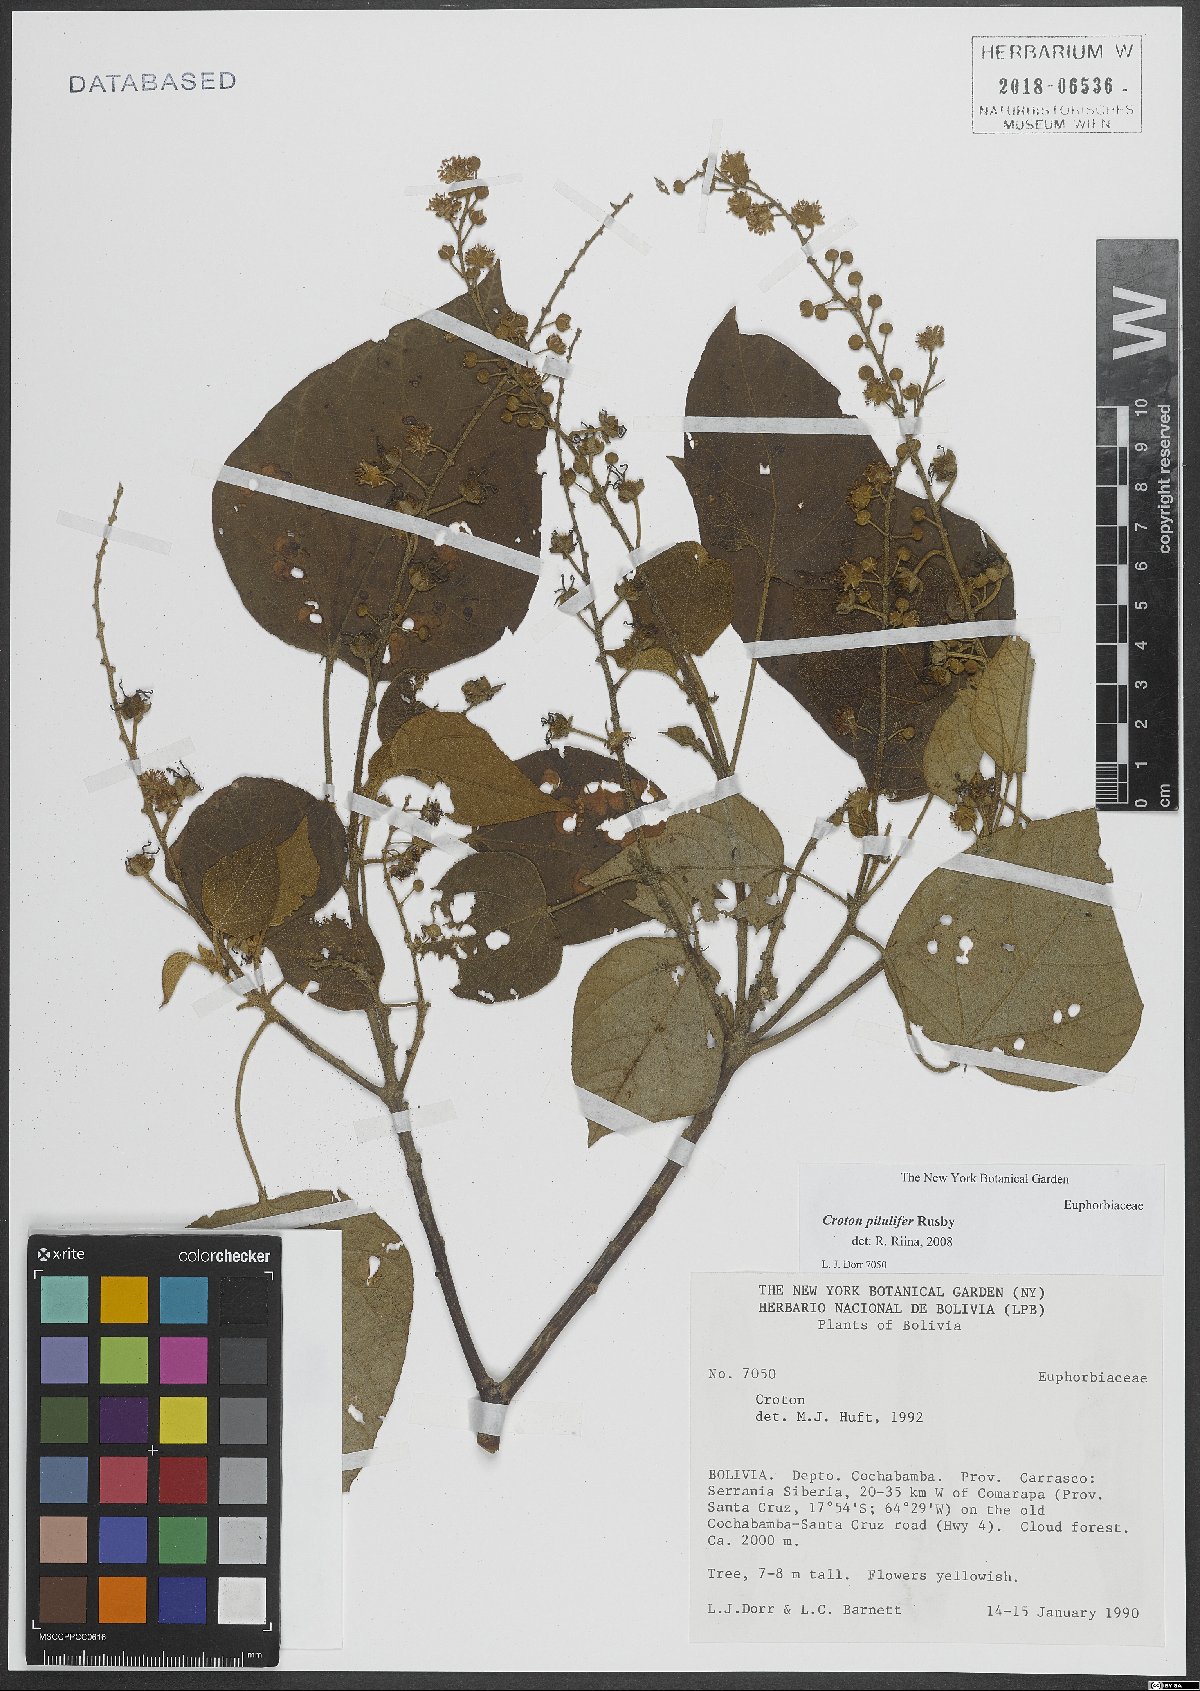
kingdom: Plantae
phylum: Tracheophyta
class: Magnoliopsida
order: Malpighiales
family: Euphorbiaceae
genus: Croton
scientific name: Croton piluliferus
